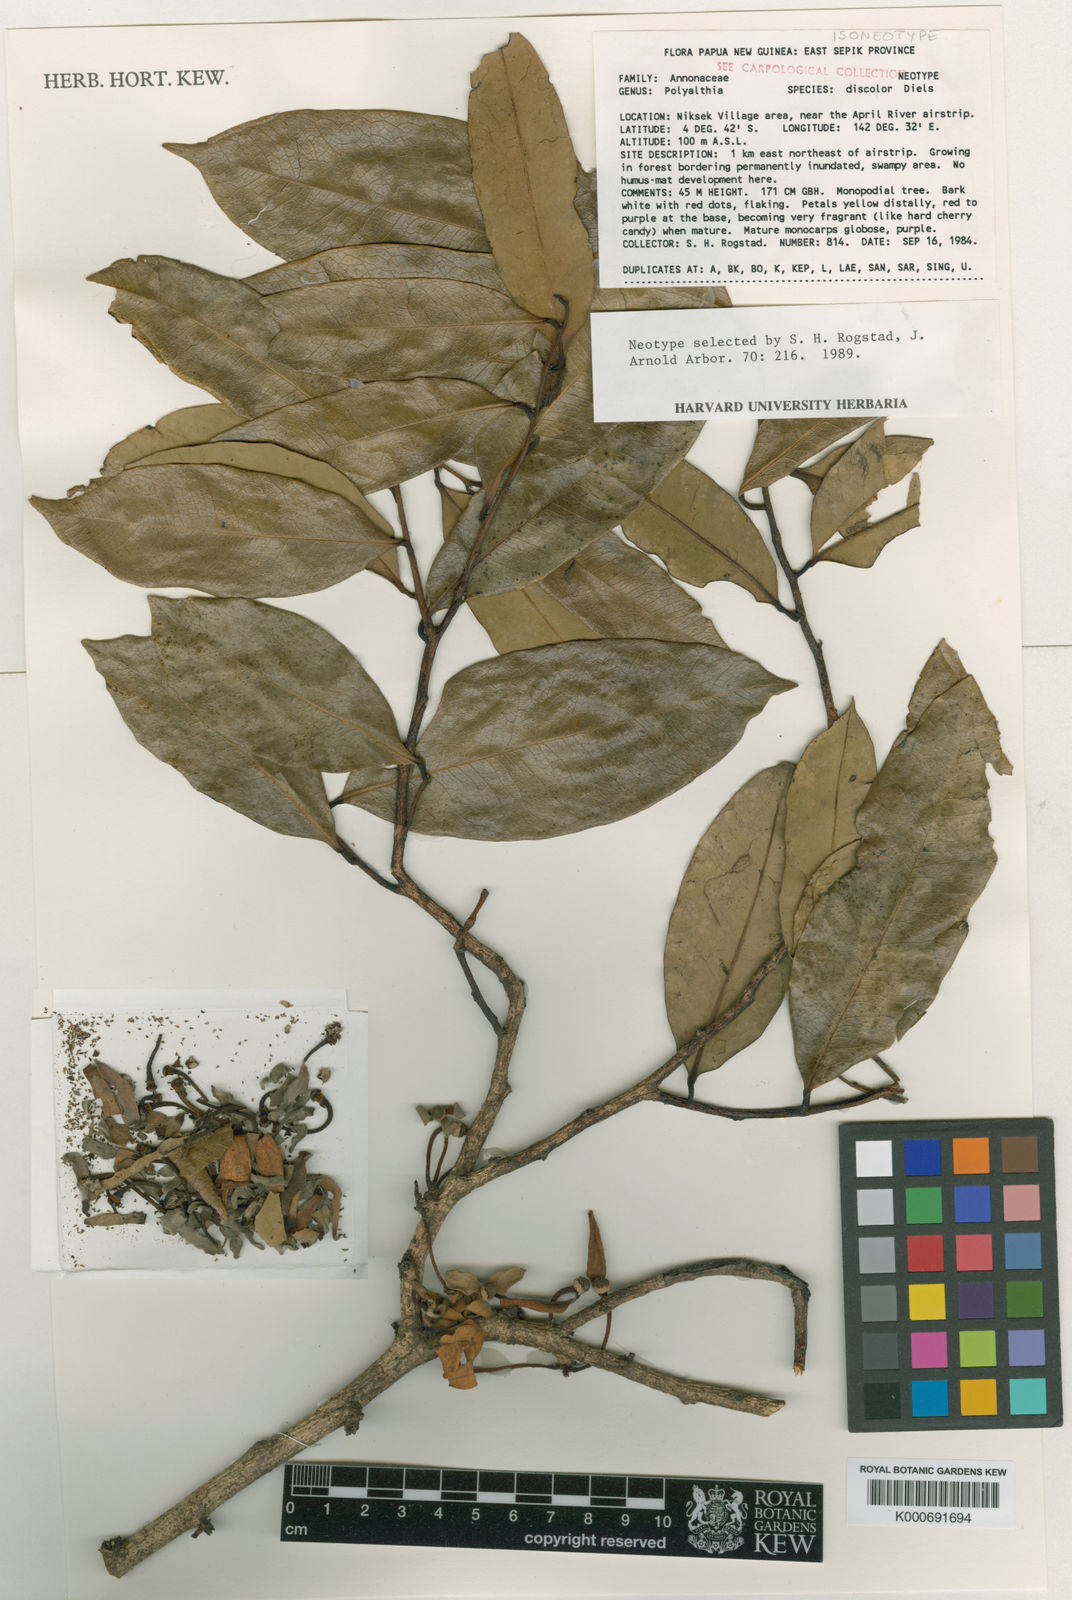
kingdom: Plantae
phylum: Tracheophyta
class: Magnoliopsida
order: Magnoliales
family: Annonaceae
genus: Maasia
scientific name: Maasia discolor
